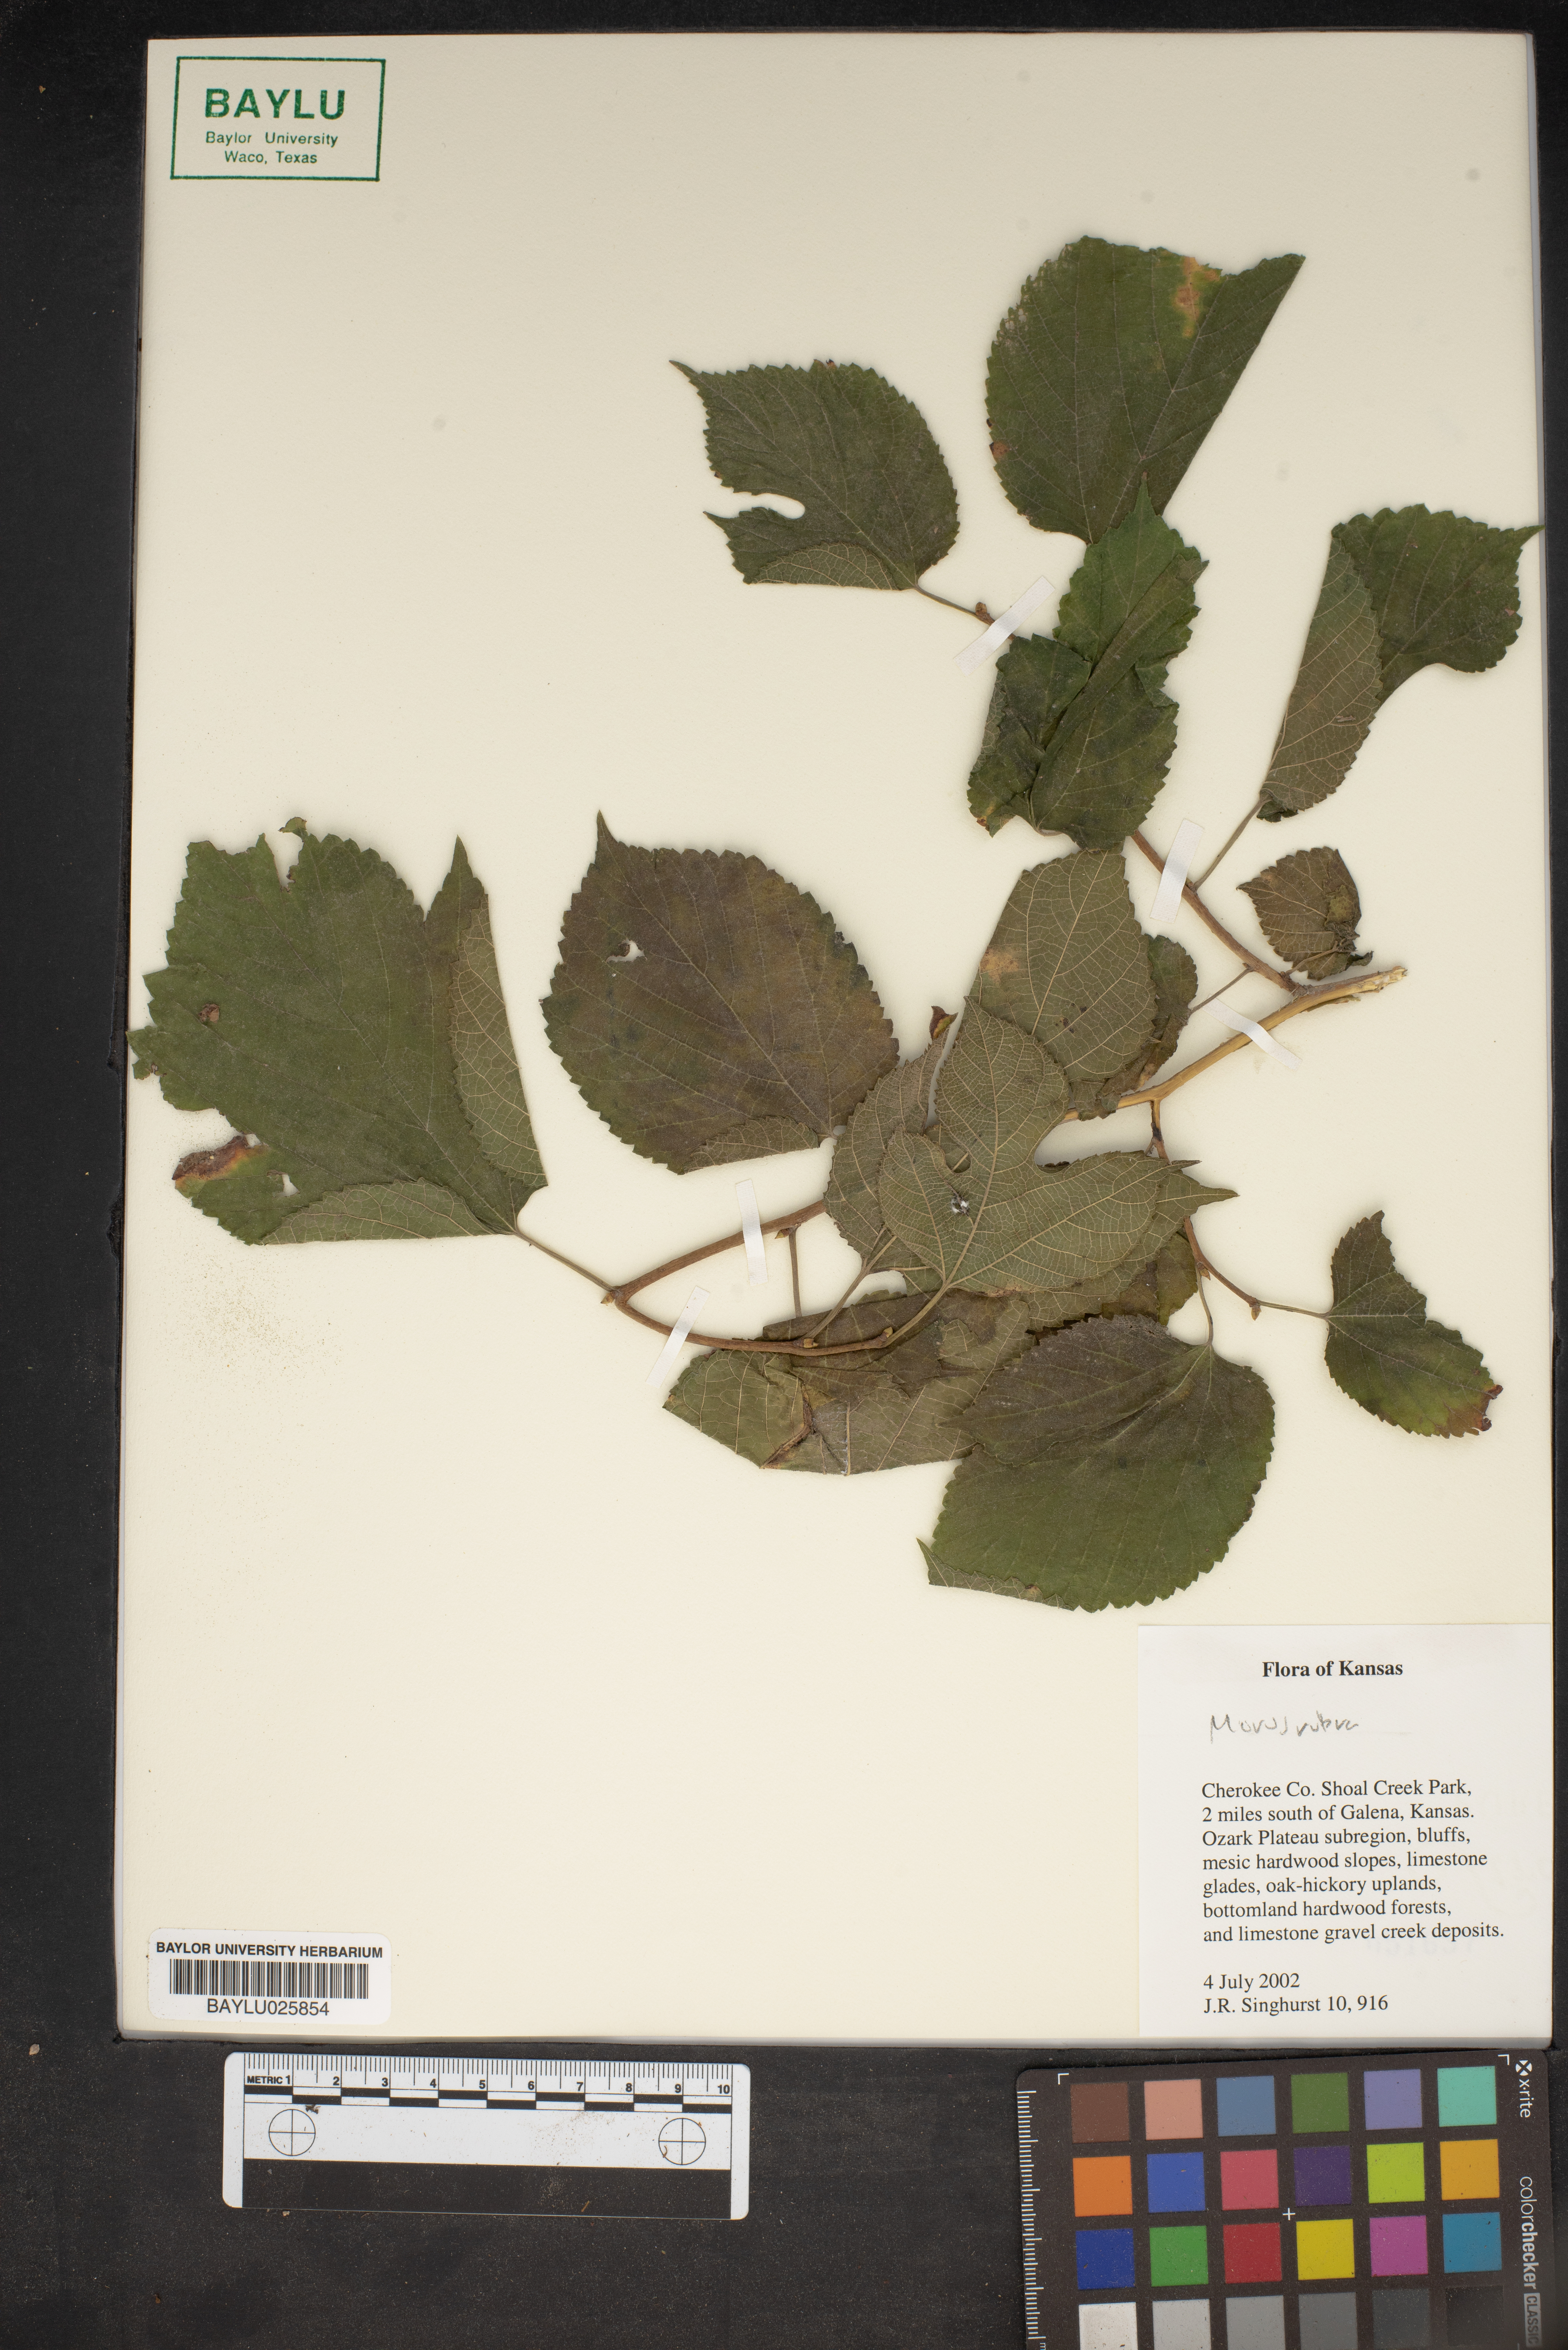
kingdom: Plantae
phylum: Tracheophyta
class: Magnoliopsida
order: Rosales
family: Moraceae
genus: Morus
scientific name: Morus rubra
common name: Red mulberry
